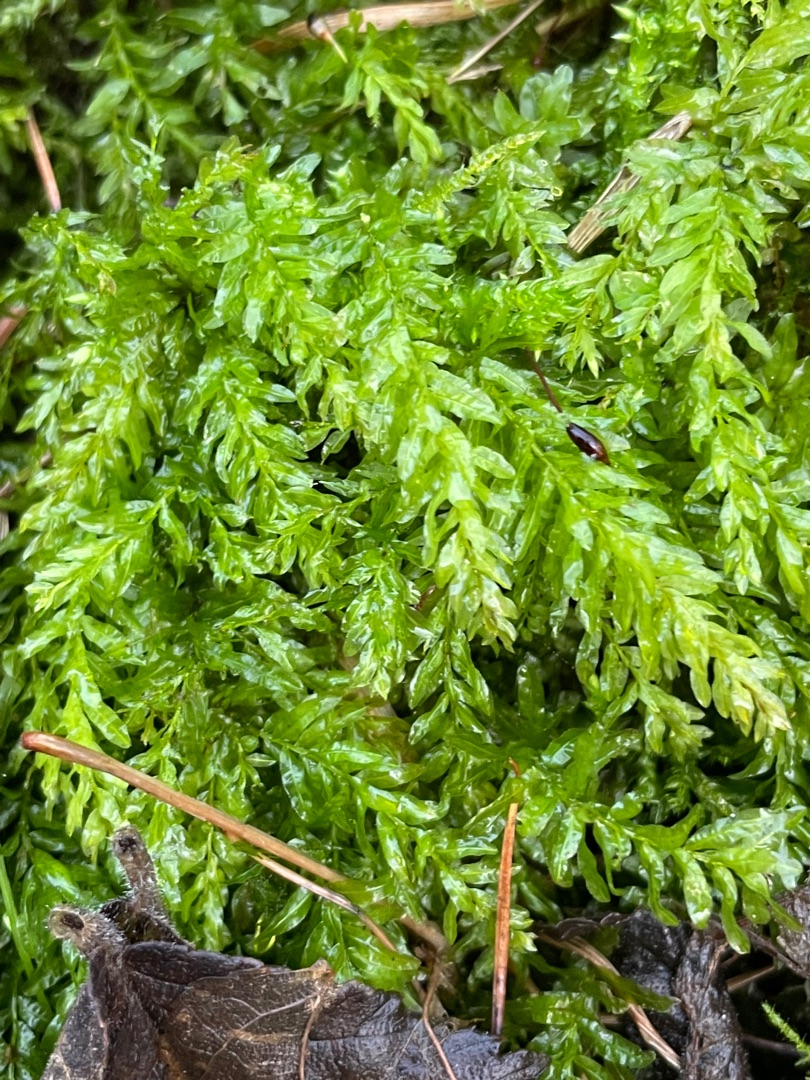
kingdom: Plantae
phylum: Bryophyta
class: Bryopsida
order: Bryales
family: Mniaceae
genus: Plagiomnium
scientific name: Plagiomnium undulatum
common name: Bølget krybstjerne
